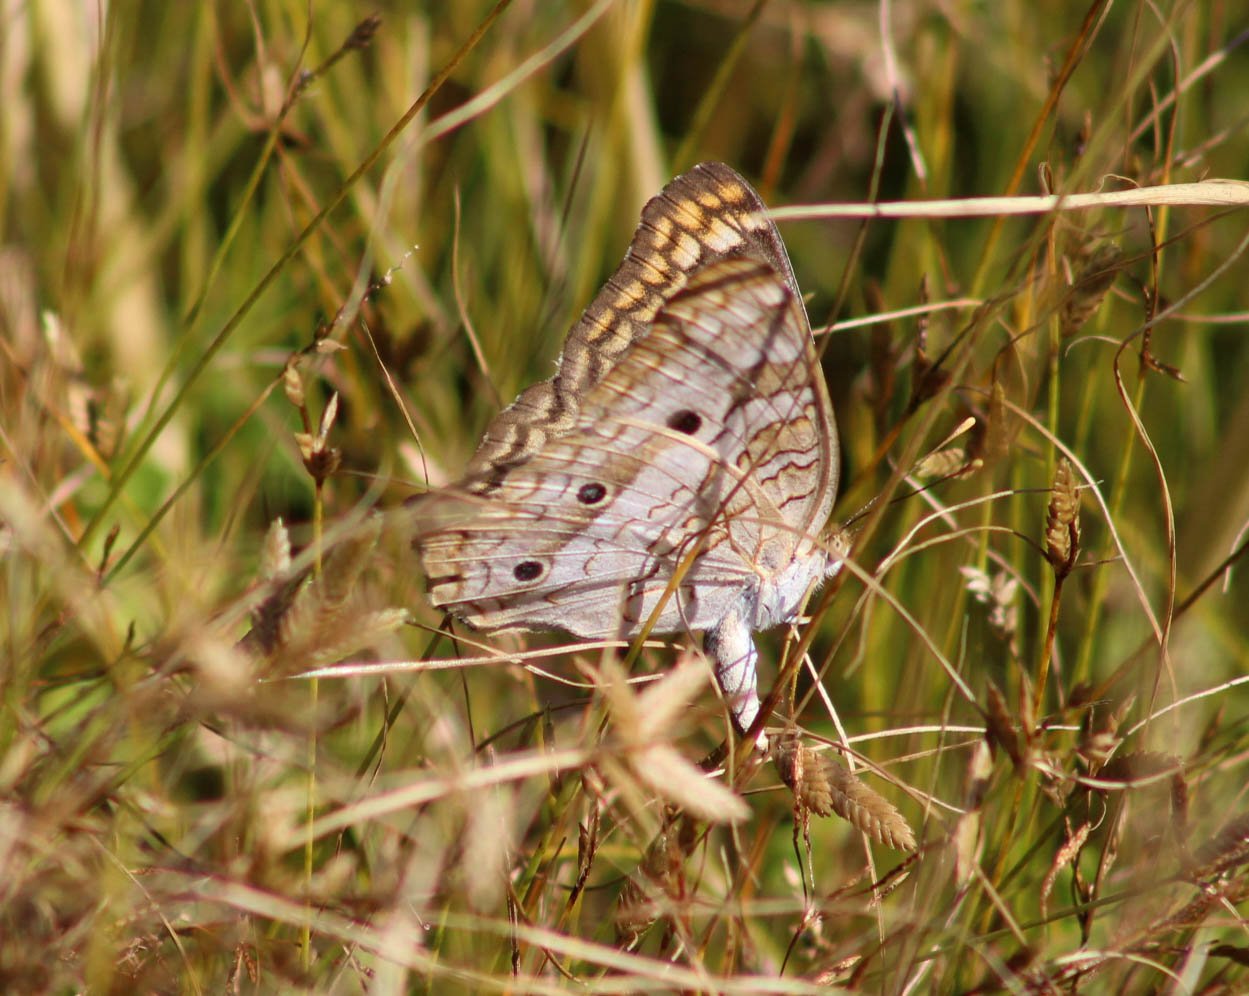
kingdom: Animalia
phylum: Arthropoda
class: Insecta
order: Lepidoptera
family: Nymphalidae
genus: Anartia
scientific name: Anartia jatrophae
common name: White Peacock
